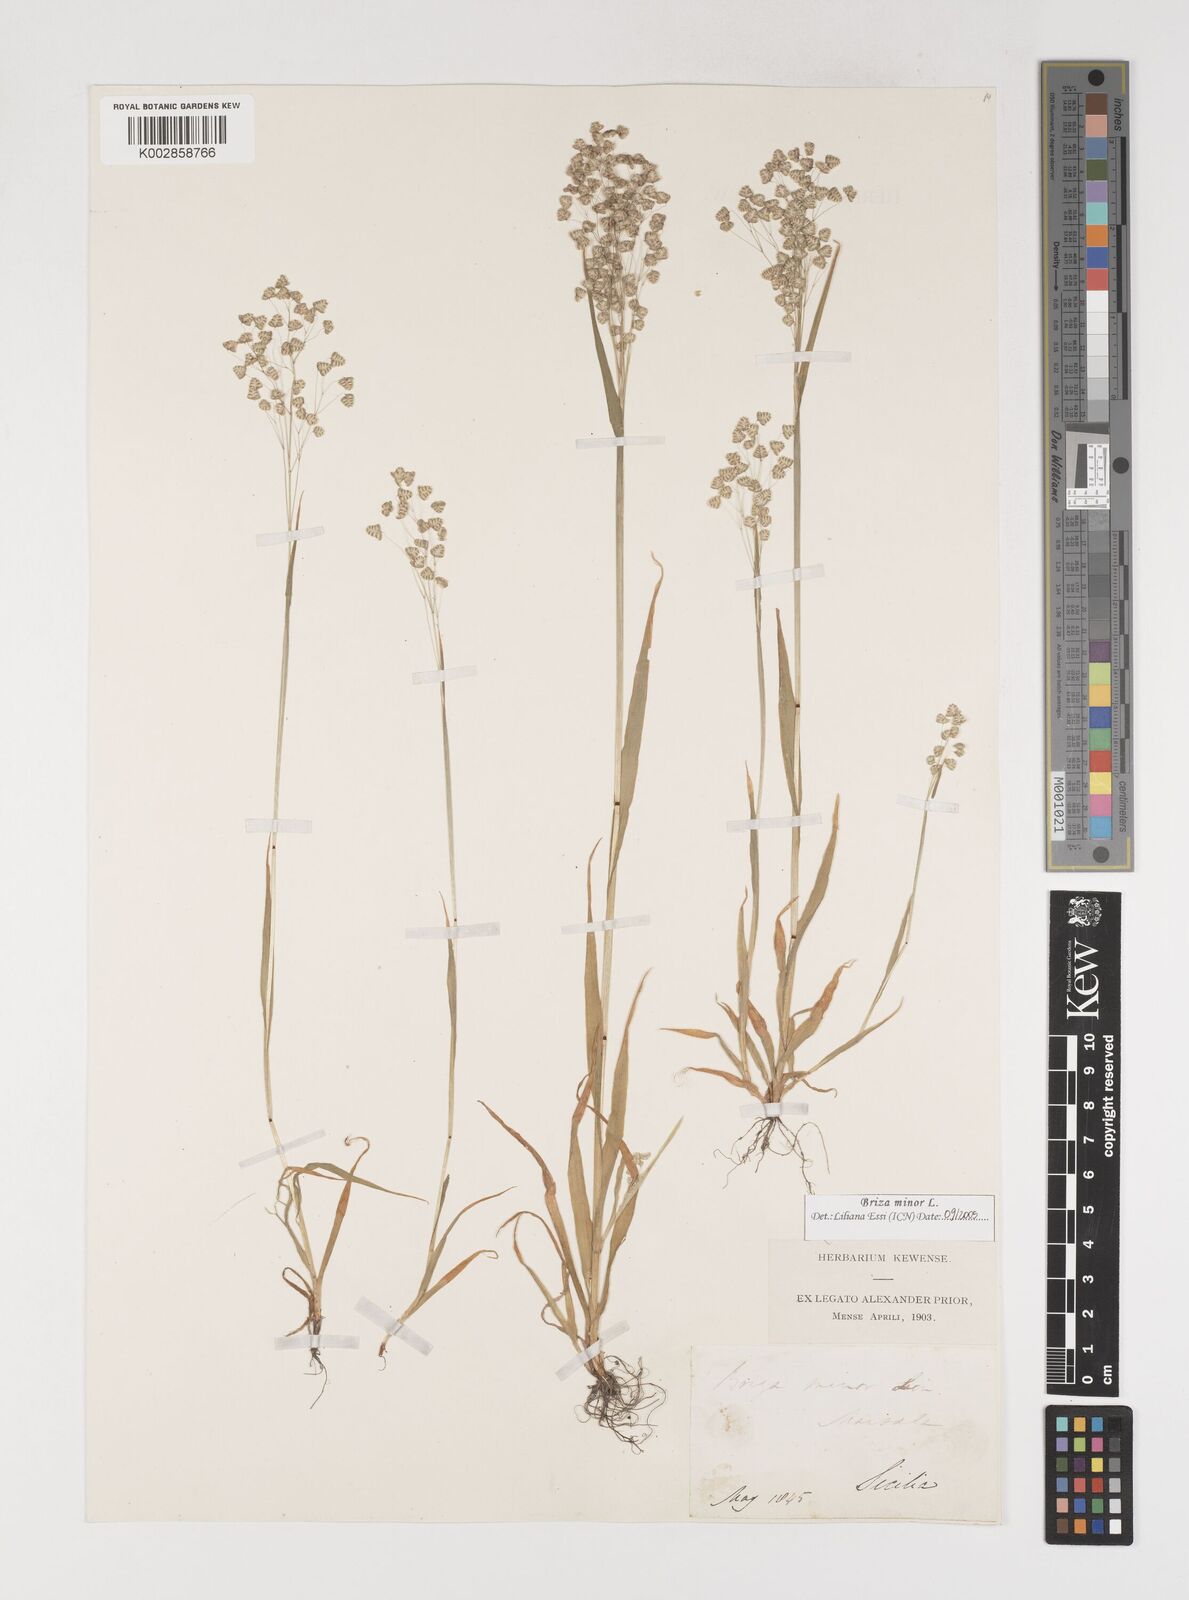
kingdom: Plantae
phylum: Tracheophyta
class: Liliopsida
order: Poales
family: Poaceae
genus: Briza
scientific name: Briza minor
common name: Lesser quaking-grass
